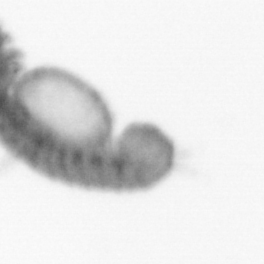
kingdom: Animalia
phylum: Annelida
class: Polychaeta
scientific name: Polychaeta
